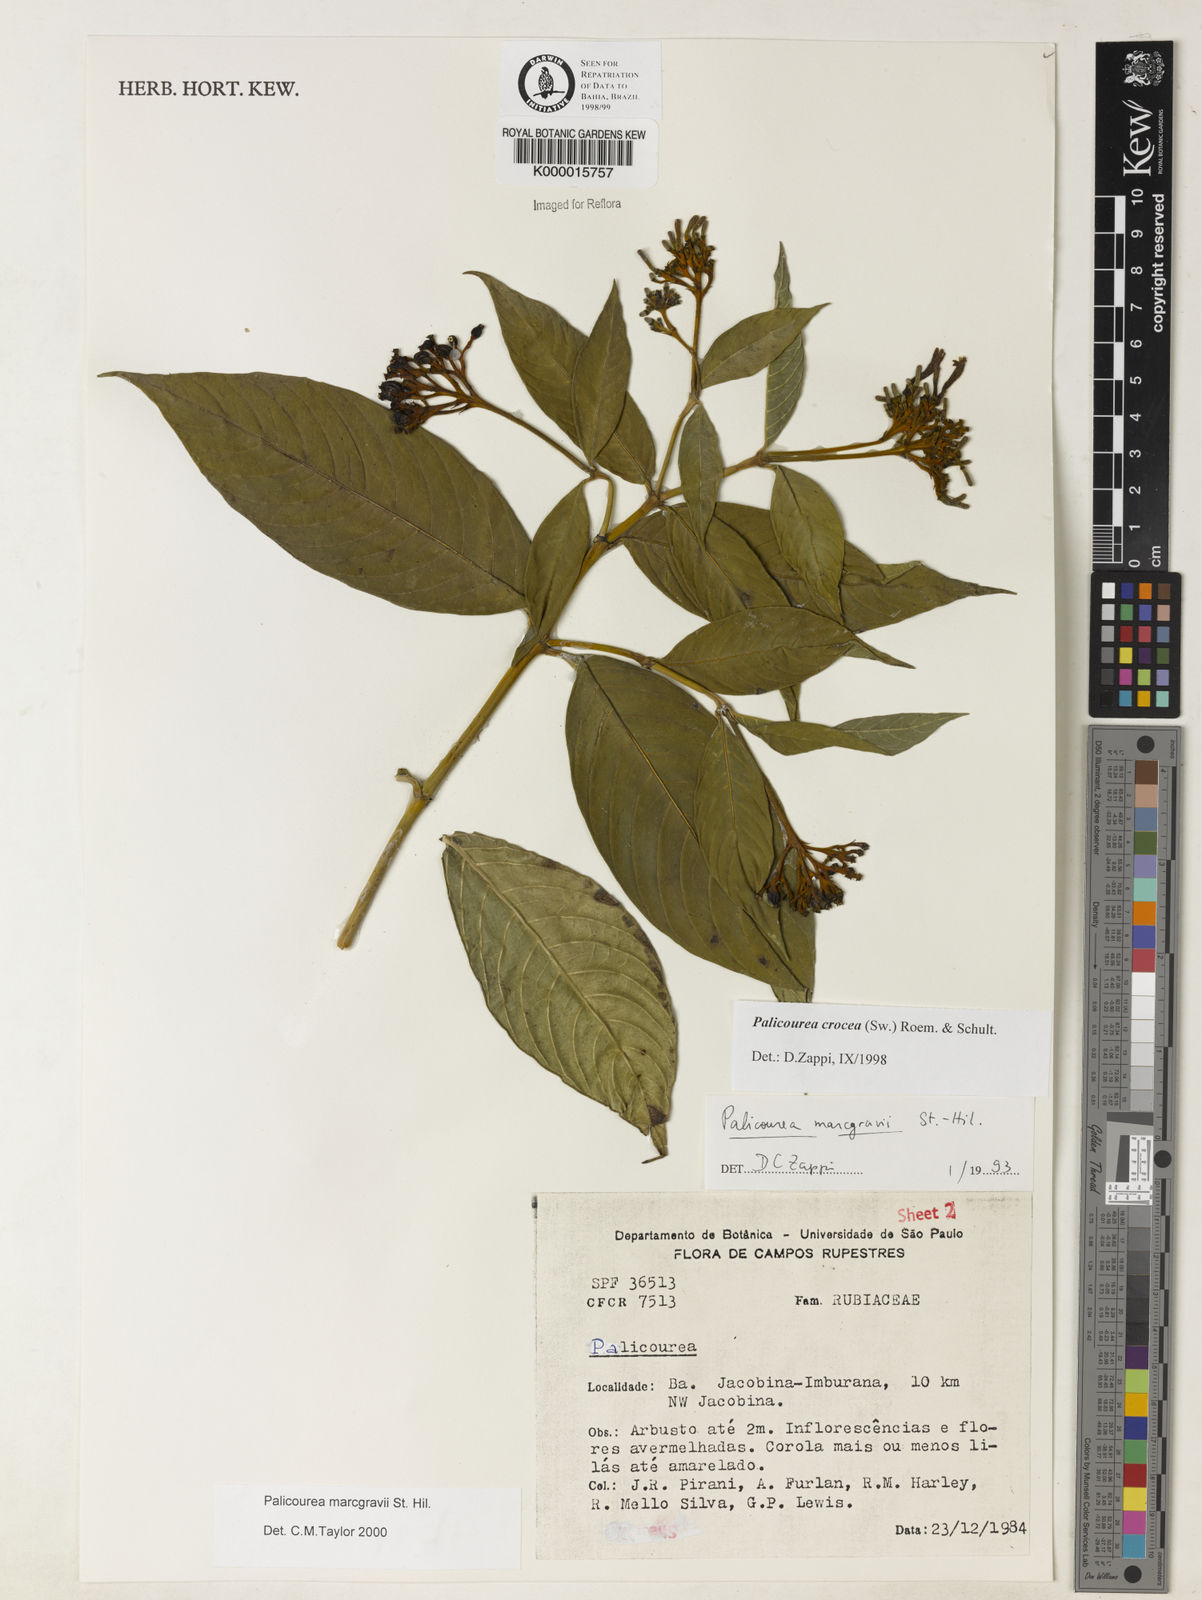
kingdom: Plantae
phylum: Tracheophyta
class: Magnoliopsida
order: Gentianales
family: Rubiaceae
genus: Palicourea
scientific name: Palicourea marcgravii
